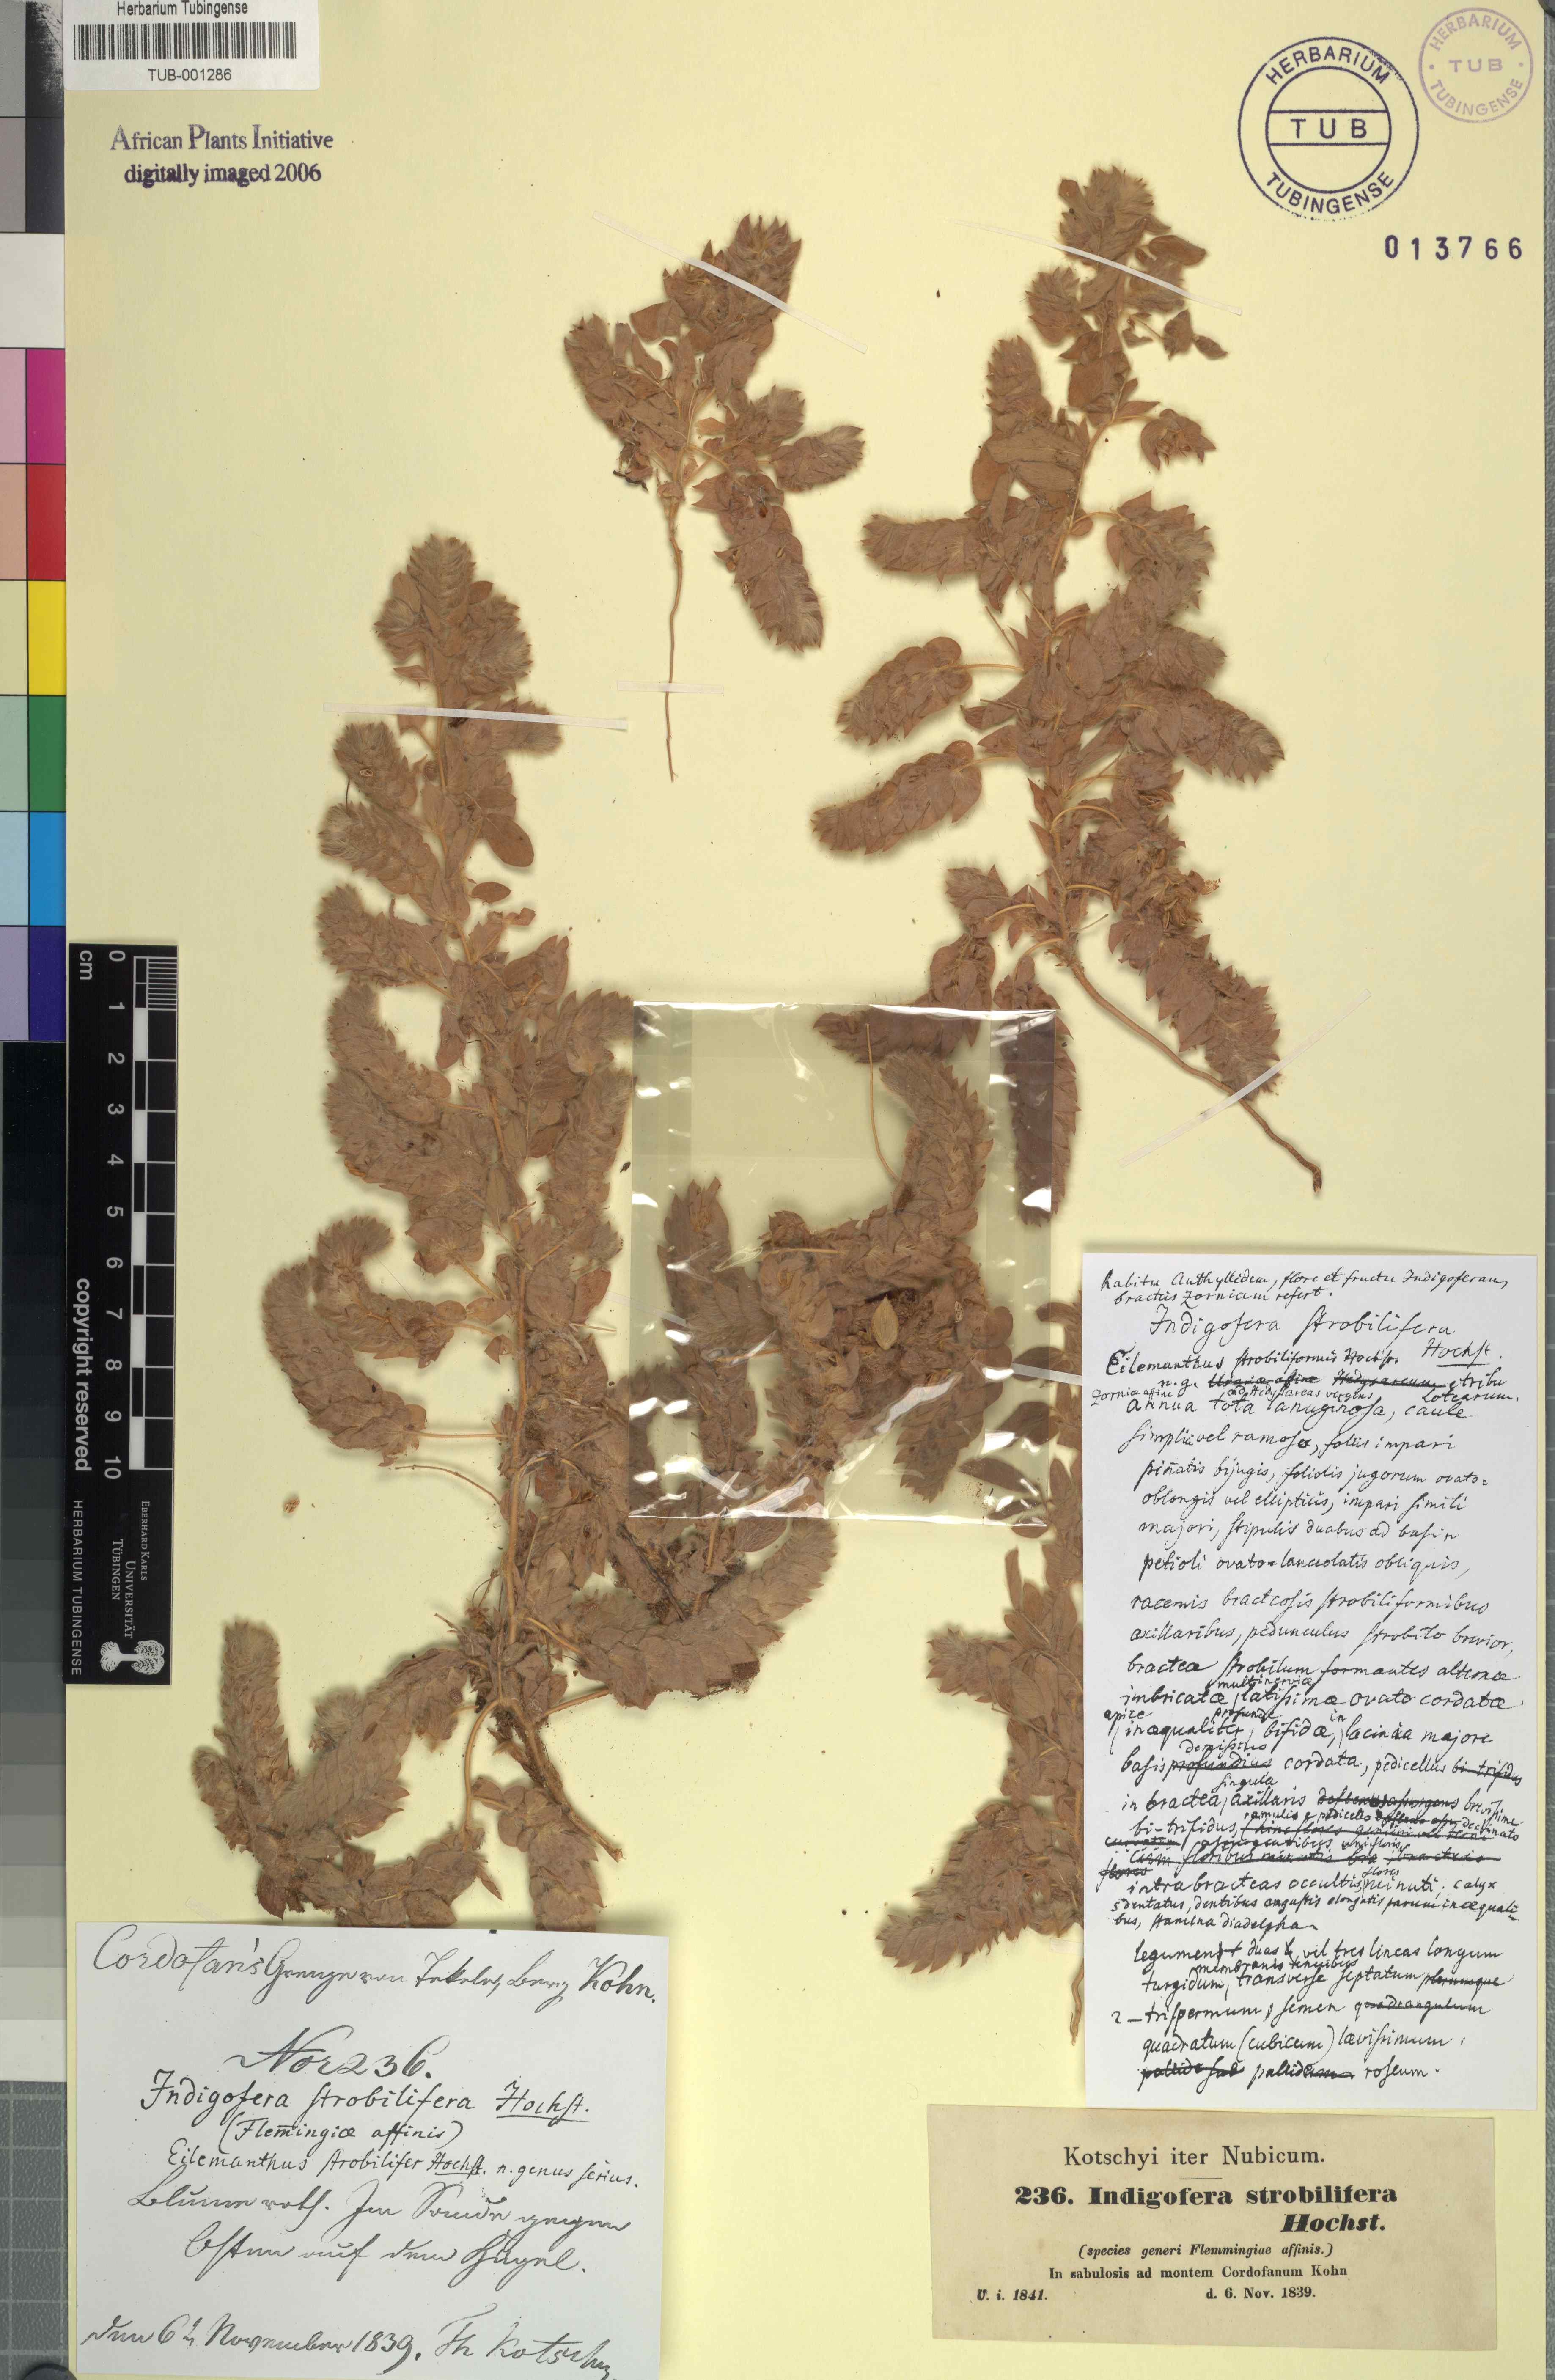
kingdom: Plantae
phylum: Tracheophyta
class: Magnoliopsida
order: Fabales
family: Fabaceae
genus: Indigofera
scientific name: Indigofera strobilifera
